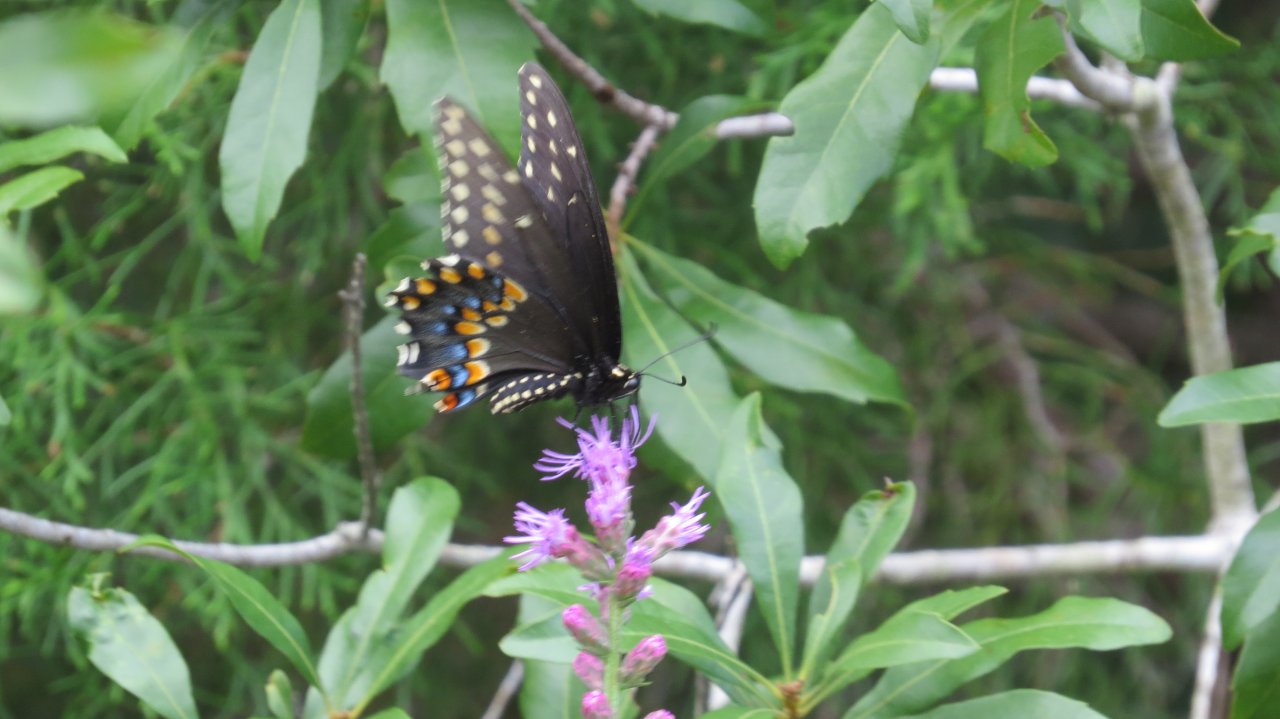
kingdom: Animalia
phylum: Arthropoda
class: Insecta
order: Lepidoptera
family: Papilionidae
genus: Papilio
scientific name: Papilio polyxenes
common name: Black Swallowtail
